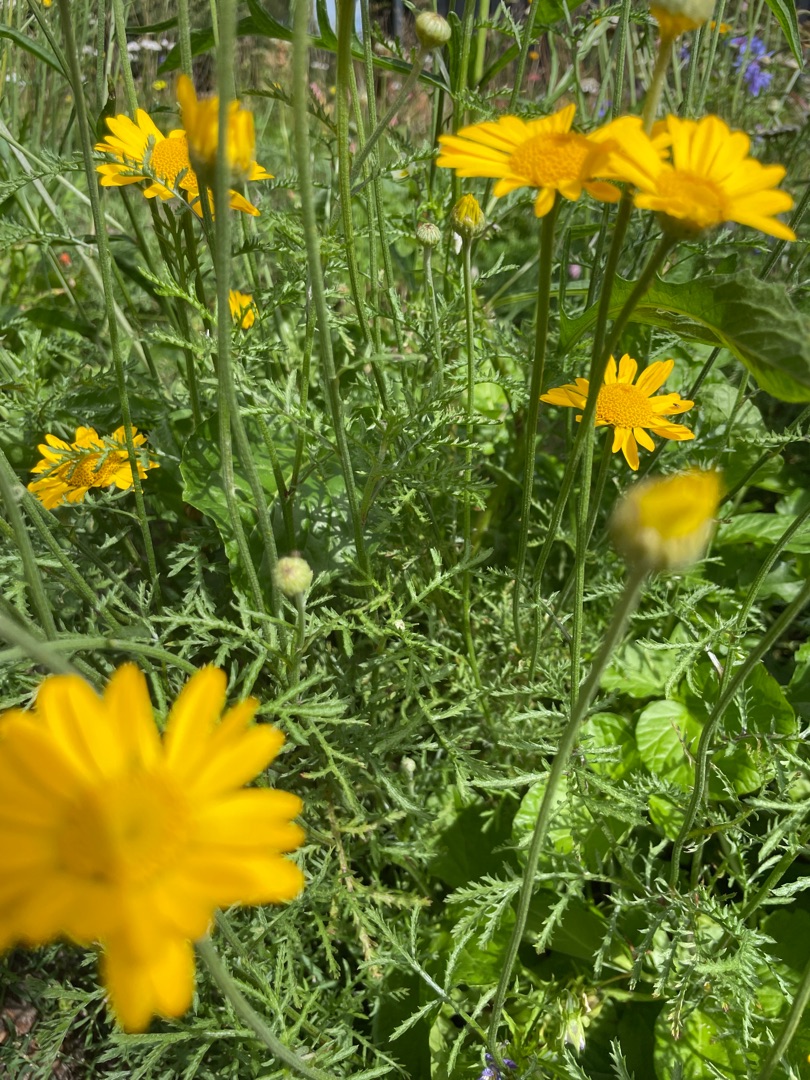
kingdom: Plantae
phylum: Tracheophyta
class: Magnoliopsida
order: Asterales
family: Asteraceae
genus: Cota
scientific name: Cota tinctoria
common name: Farve-gåseurt
